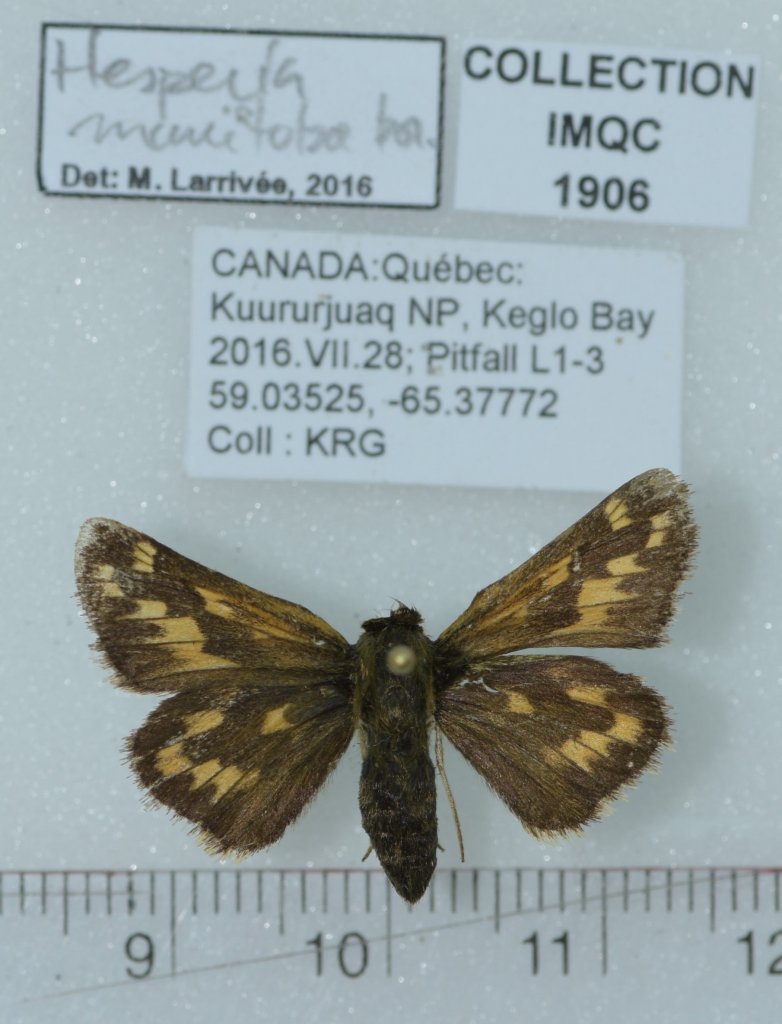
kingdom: Animalia
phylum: Arthropoda
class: Insecta
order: Lepidoptera
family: Hesperiidae
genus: Hesperia
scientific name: Hesperia comma
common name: Common Branded Skipper
